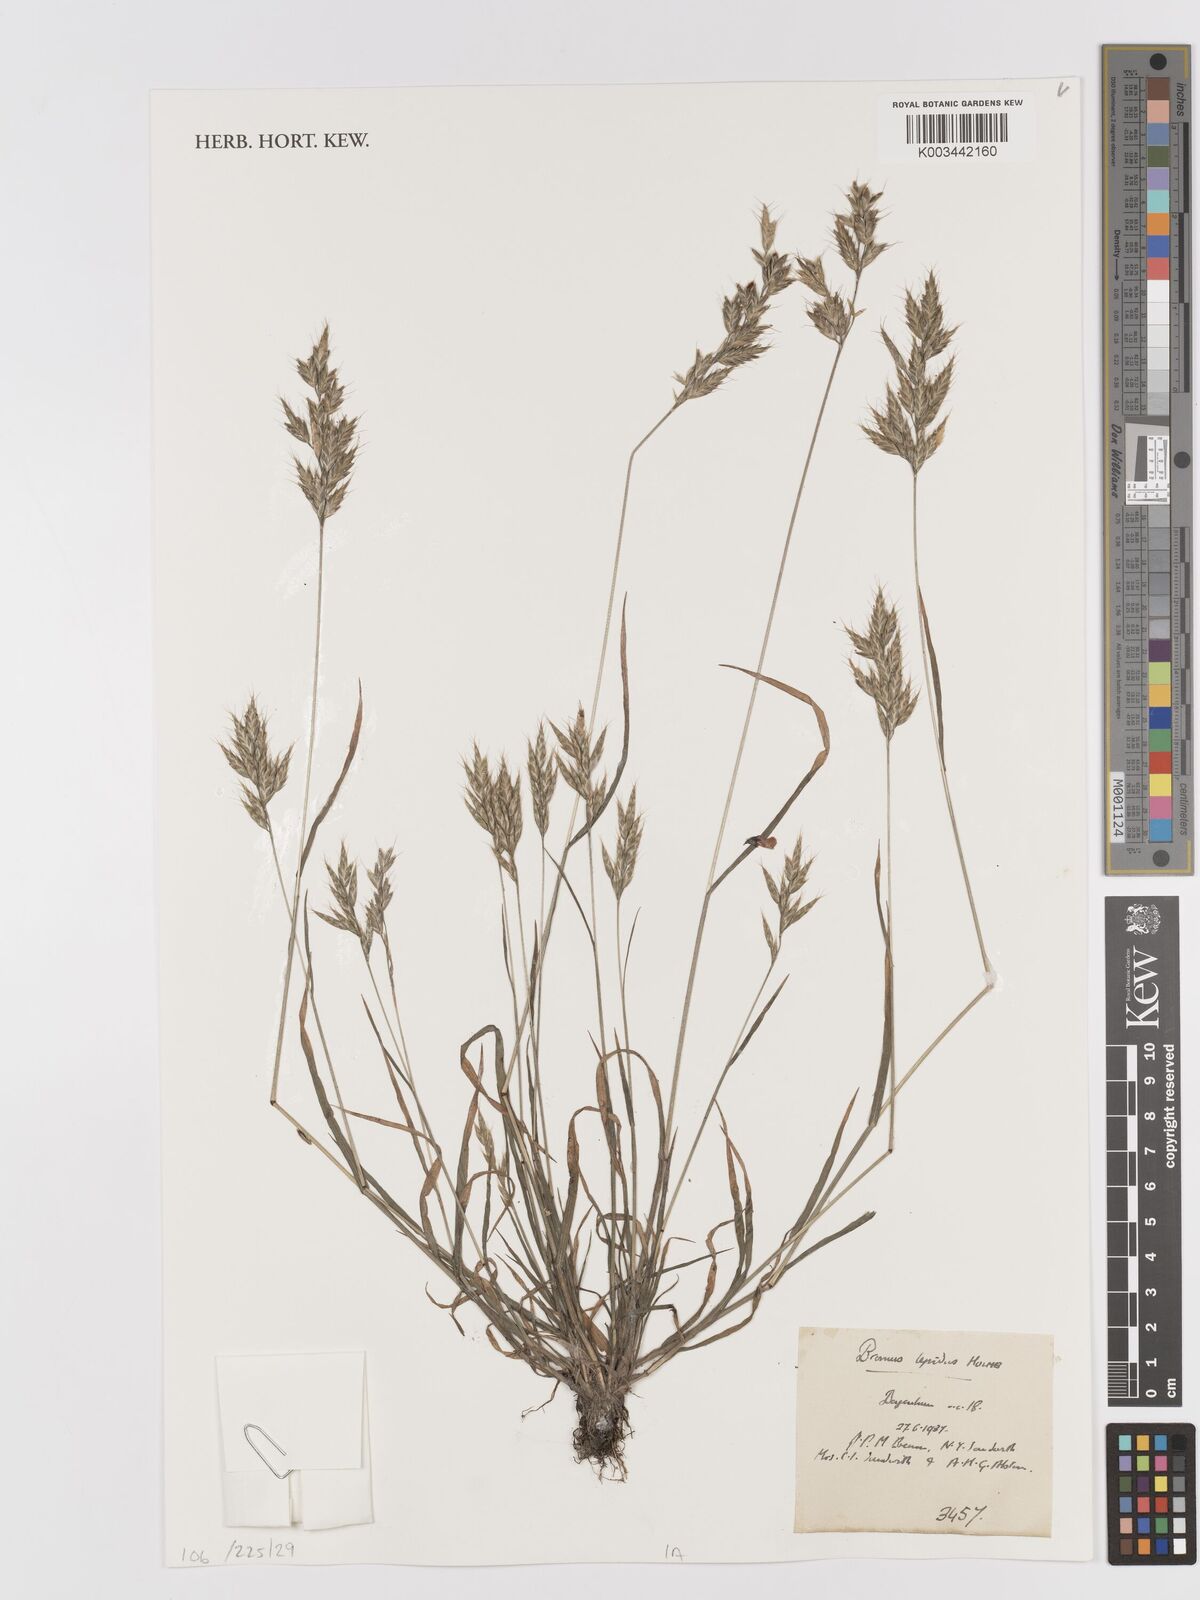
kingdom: Plantae
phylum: Tracheophyta
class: Liliopsida
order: Poales
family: Poaceae
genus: Bromus
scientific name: Bromus lepidus
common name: Slender soft-brome
